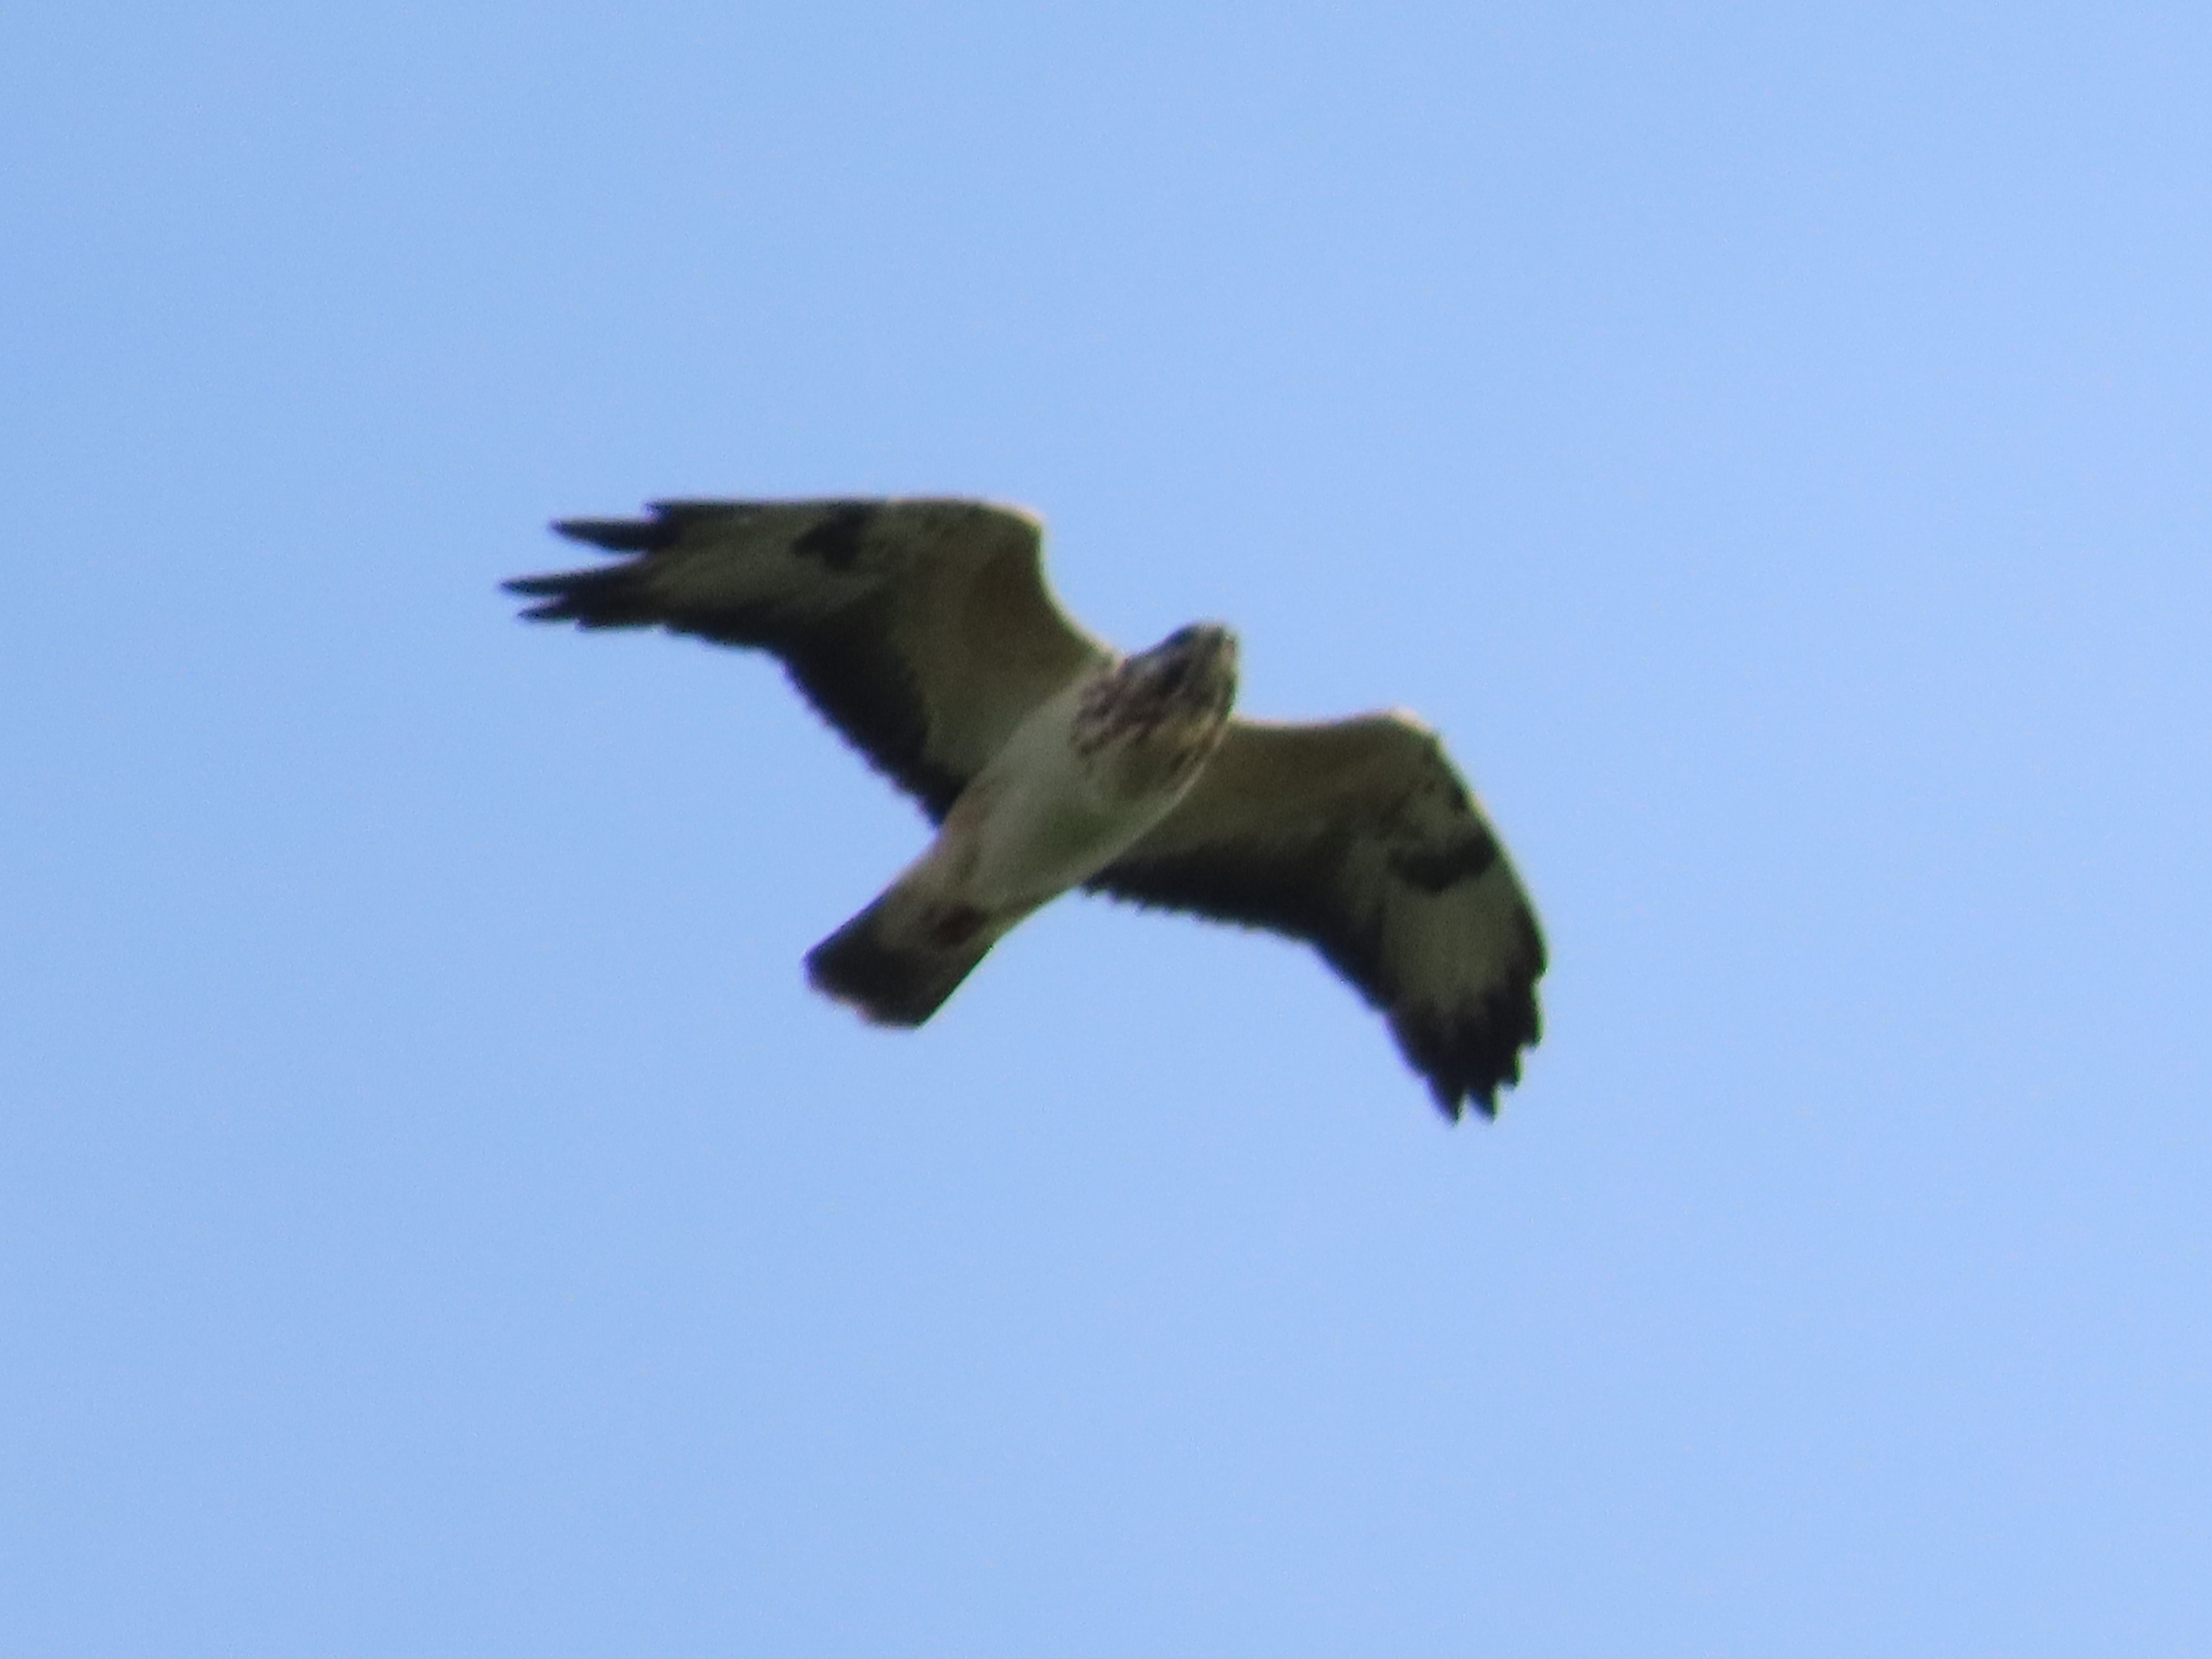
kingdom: Animalia
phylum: Chordata
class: Aves
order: Accipitriformes
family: Accipitridae
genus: Buteo
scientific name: Buteo buteo
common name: Musvåge
